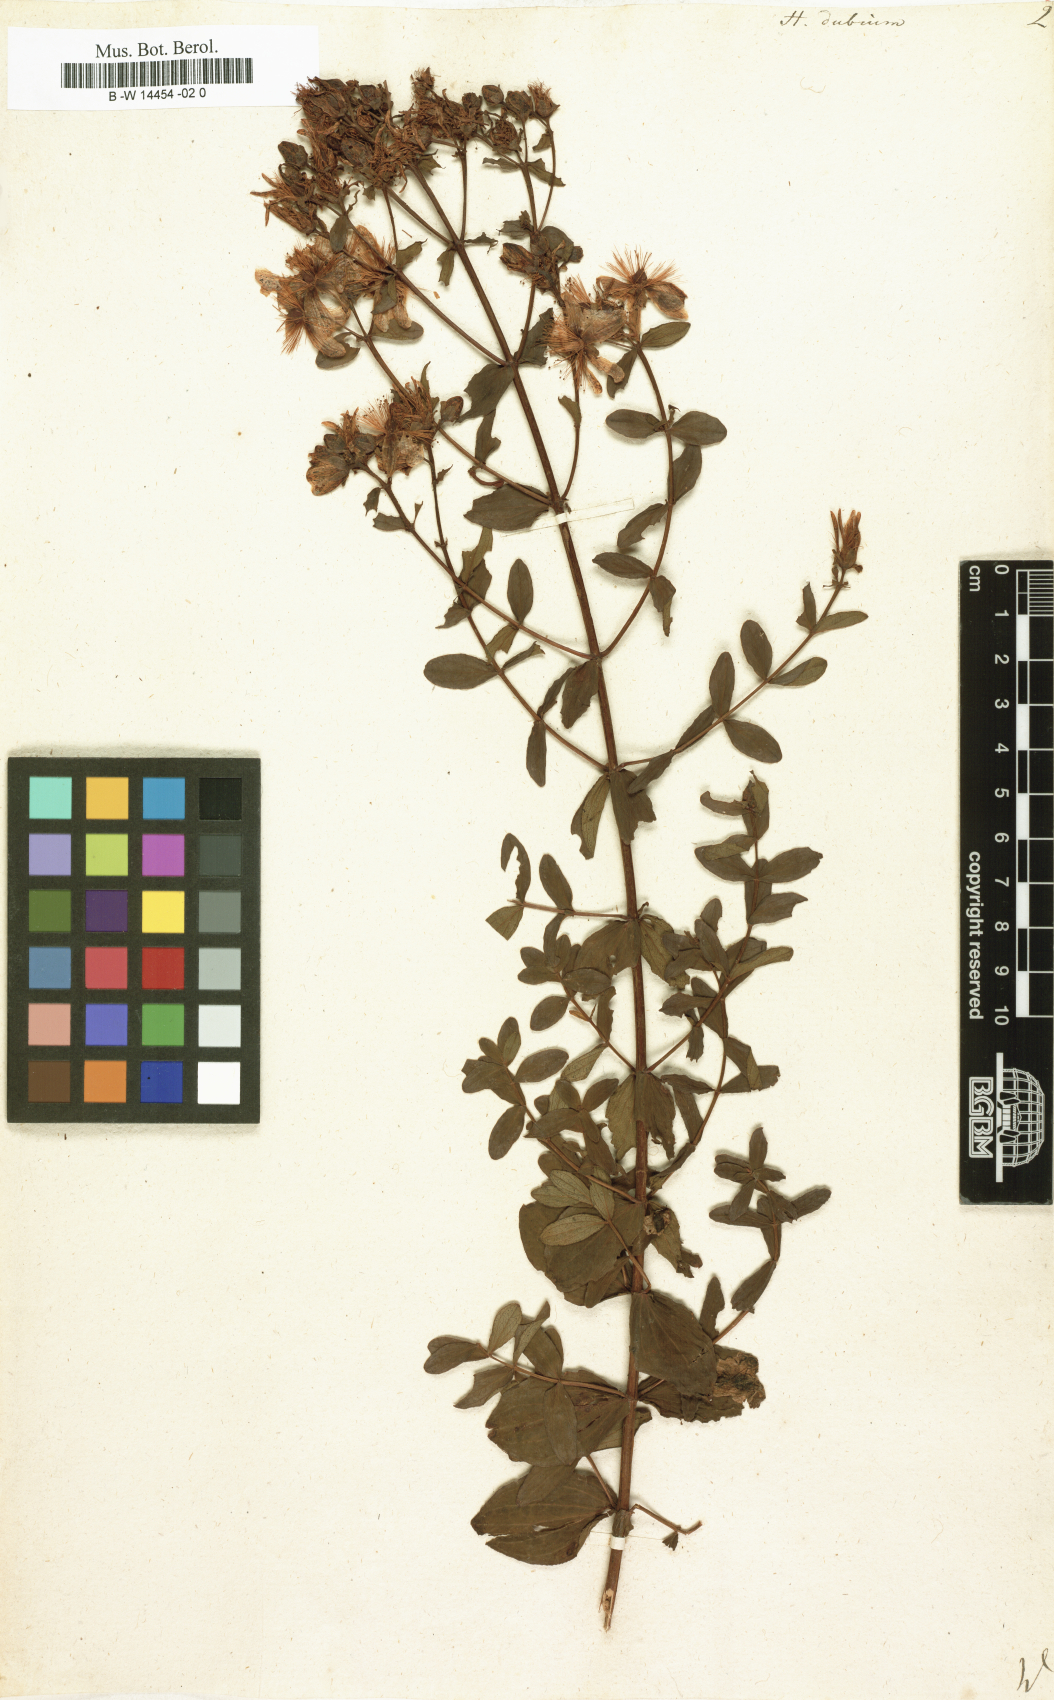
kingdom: Plantae
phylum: Tracheophyta
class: Magnoliopsida
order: Malpighiales
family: Hypericaceae
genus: Hypericum
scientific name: Hypericum dubium
